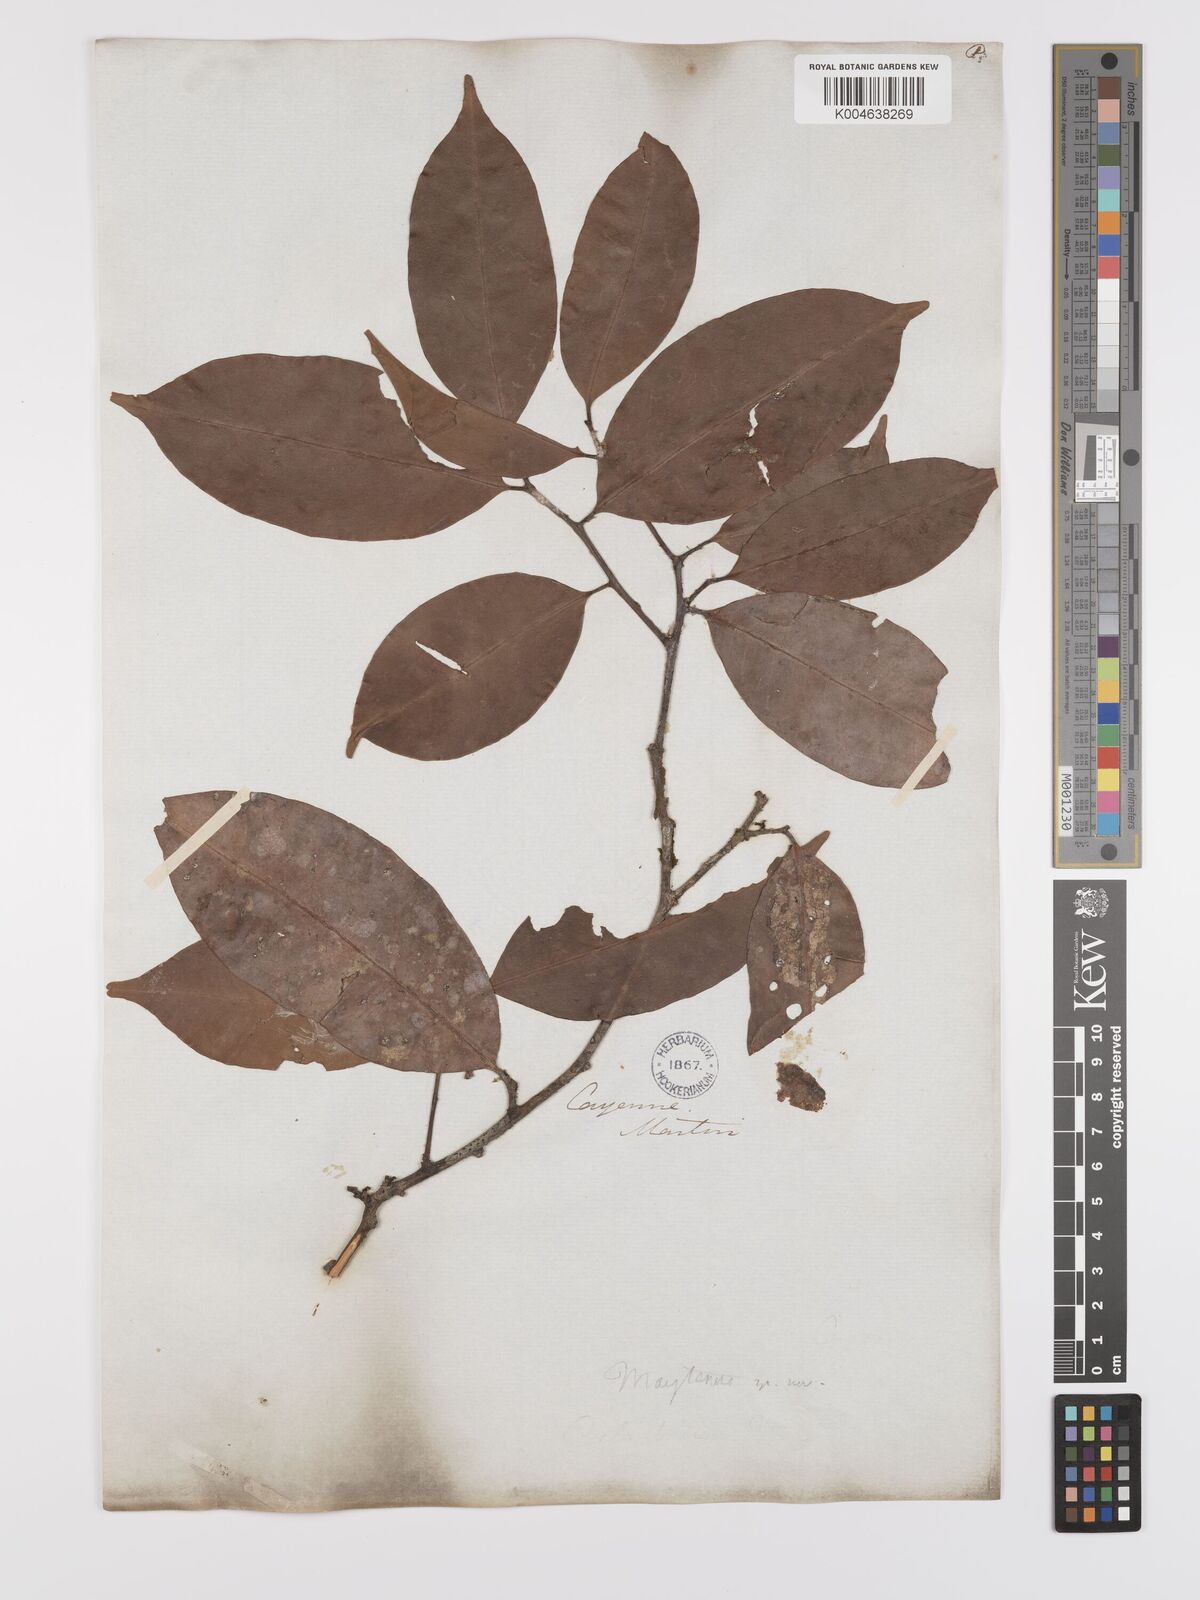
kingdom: Plantae
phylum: Tracheophyta
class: Magnoliopsida
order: Celastrales
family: Celastraceae
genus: Maytenus
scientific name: Maytenus
